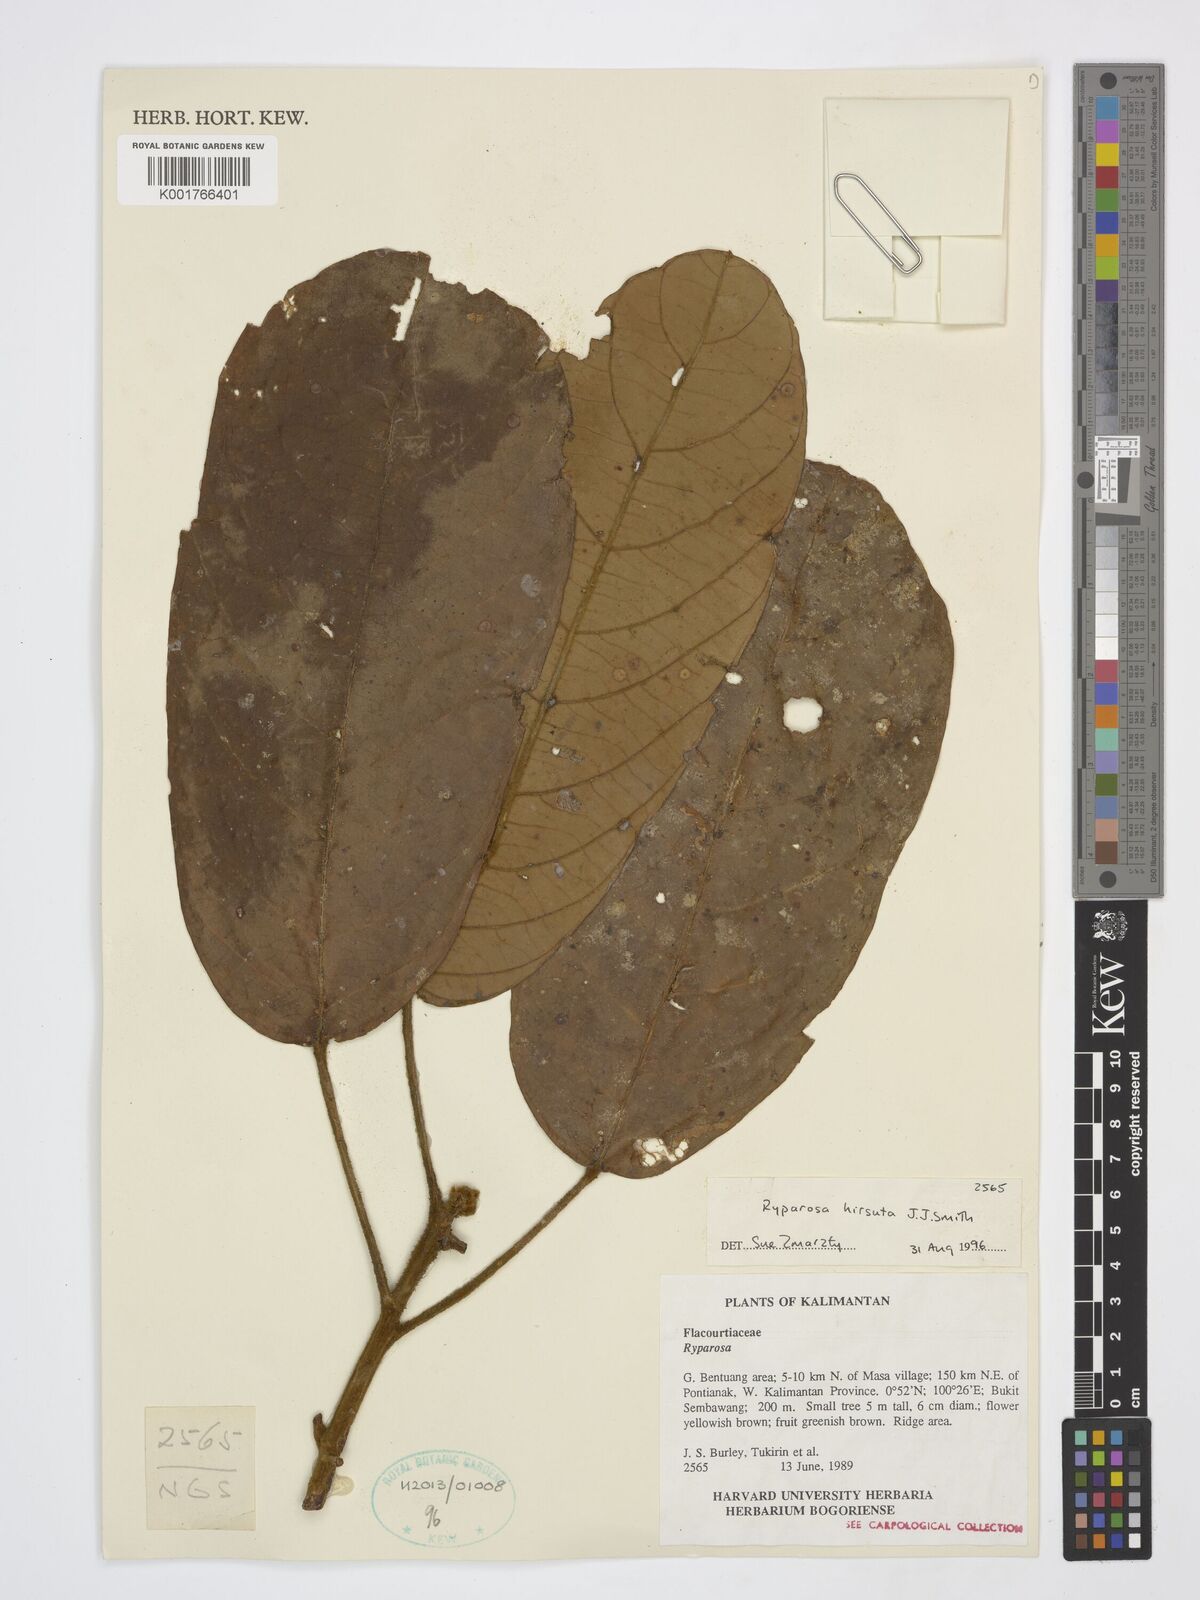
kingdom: Plantae
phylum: Tracheophyta
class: Magnoliopsida
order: Malpighiales
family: Achariaceae
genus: Ryparosa
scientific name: Ryparosa hirsuta
